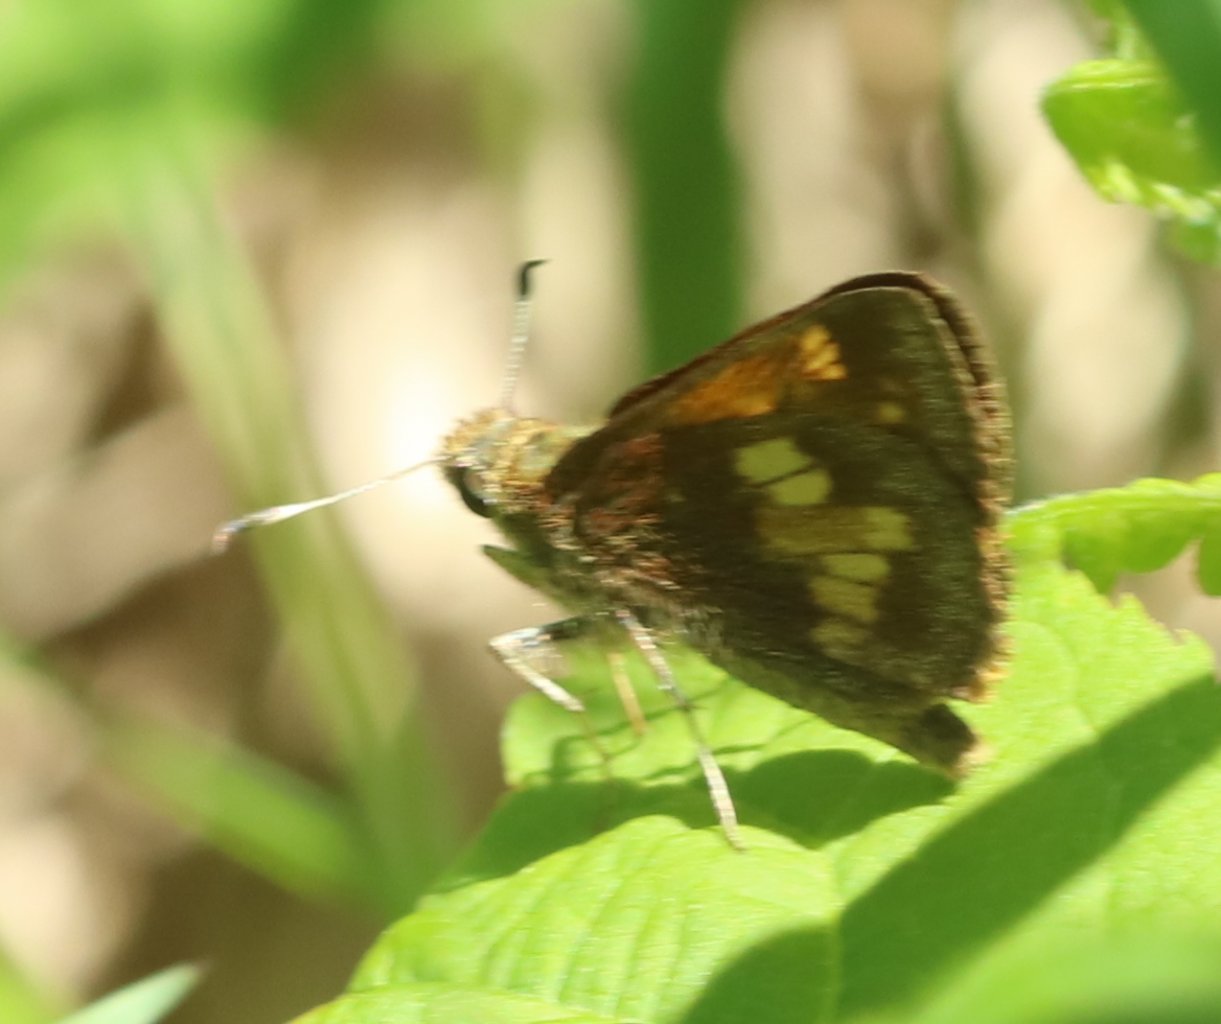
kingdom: Animalia
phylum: Arthropoda
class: Insecta
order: Lepidoptera
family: Hesperiidae
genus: Lon
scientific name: Lon hobomok
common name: Hobomok Skipper
